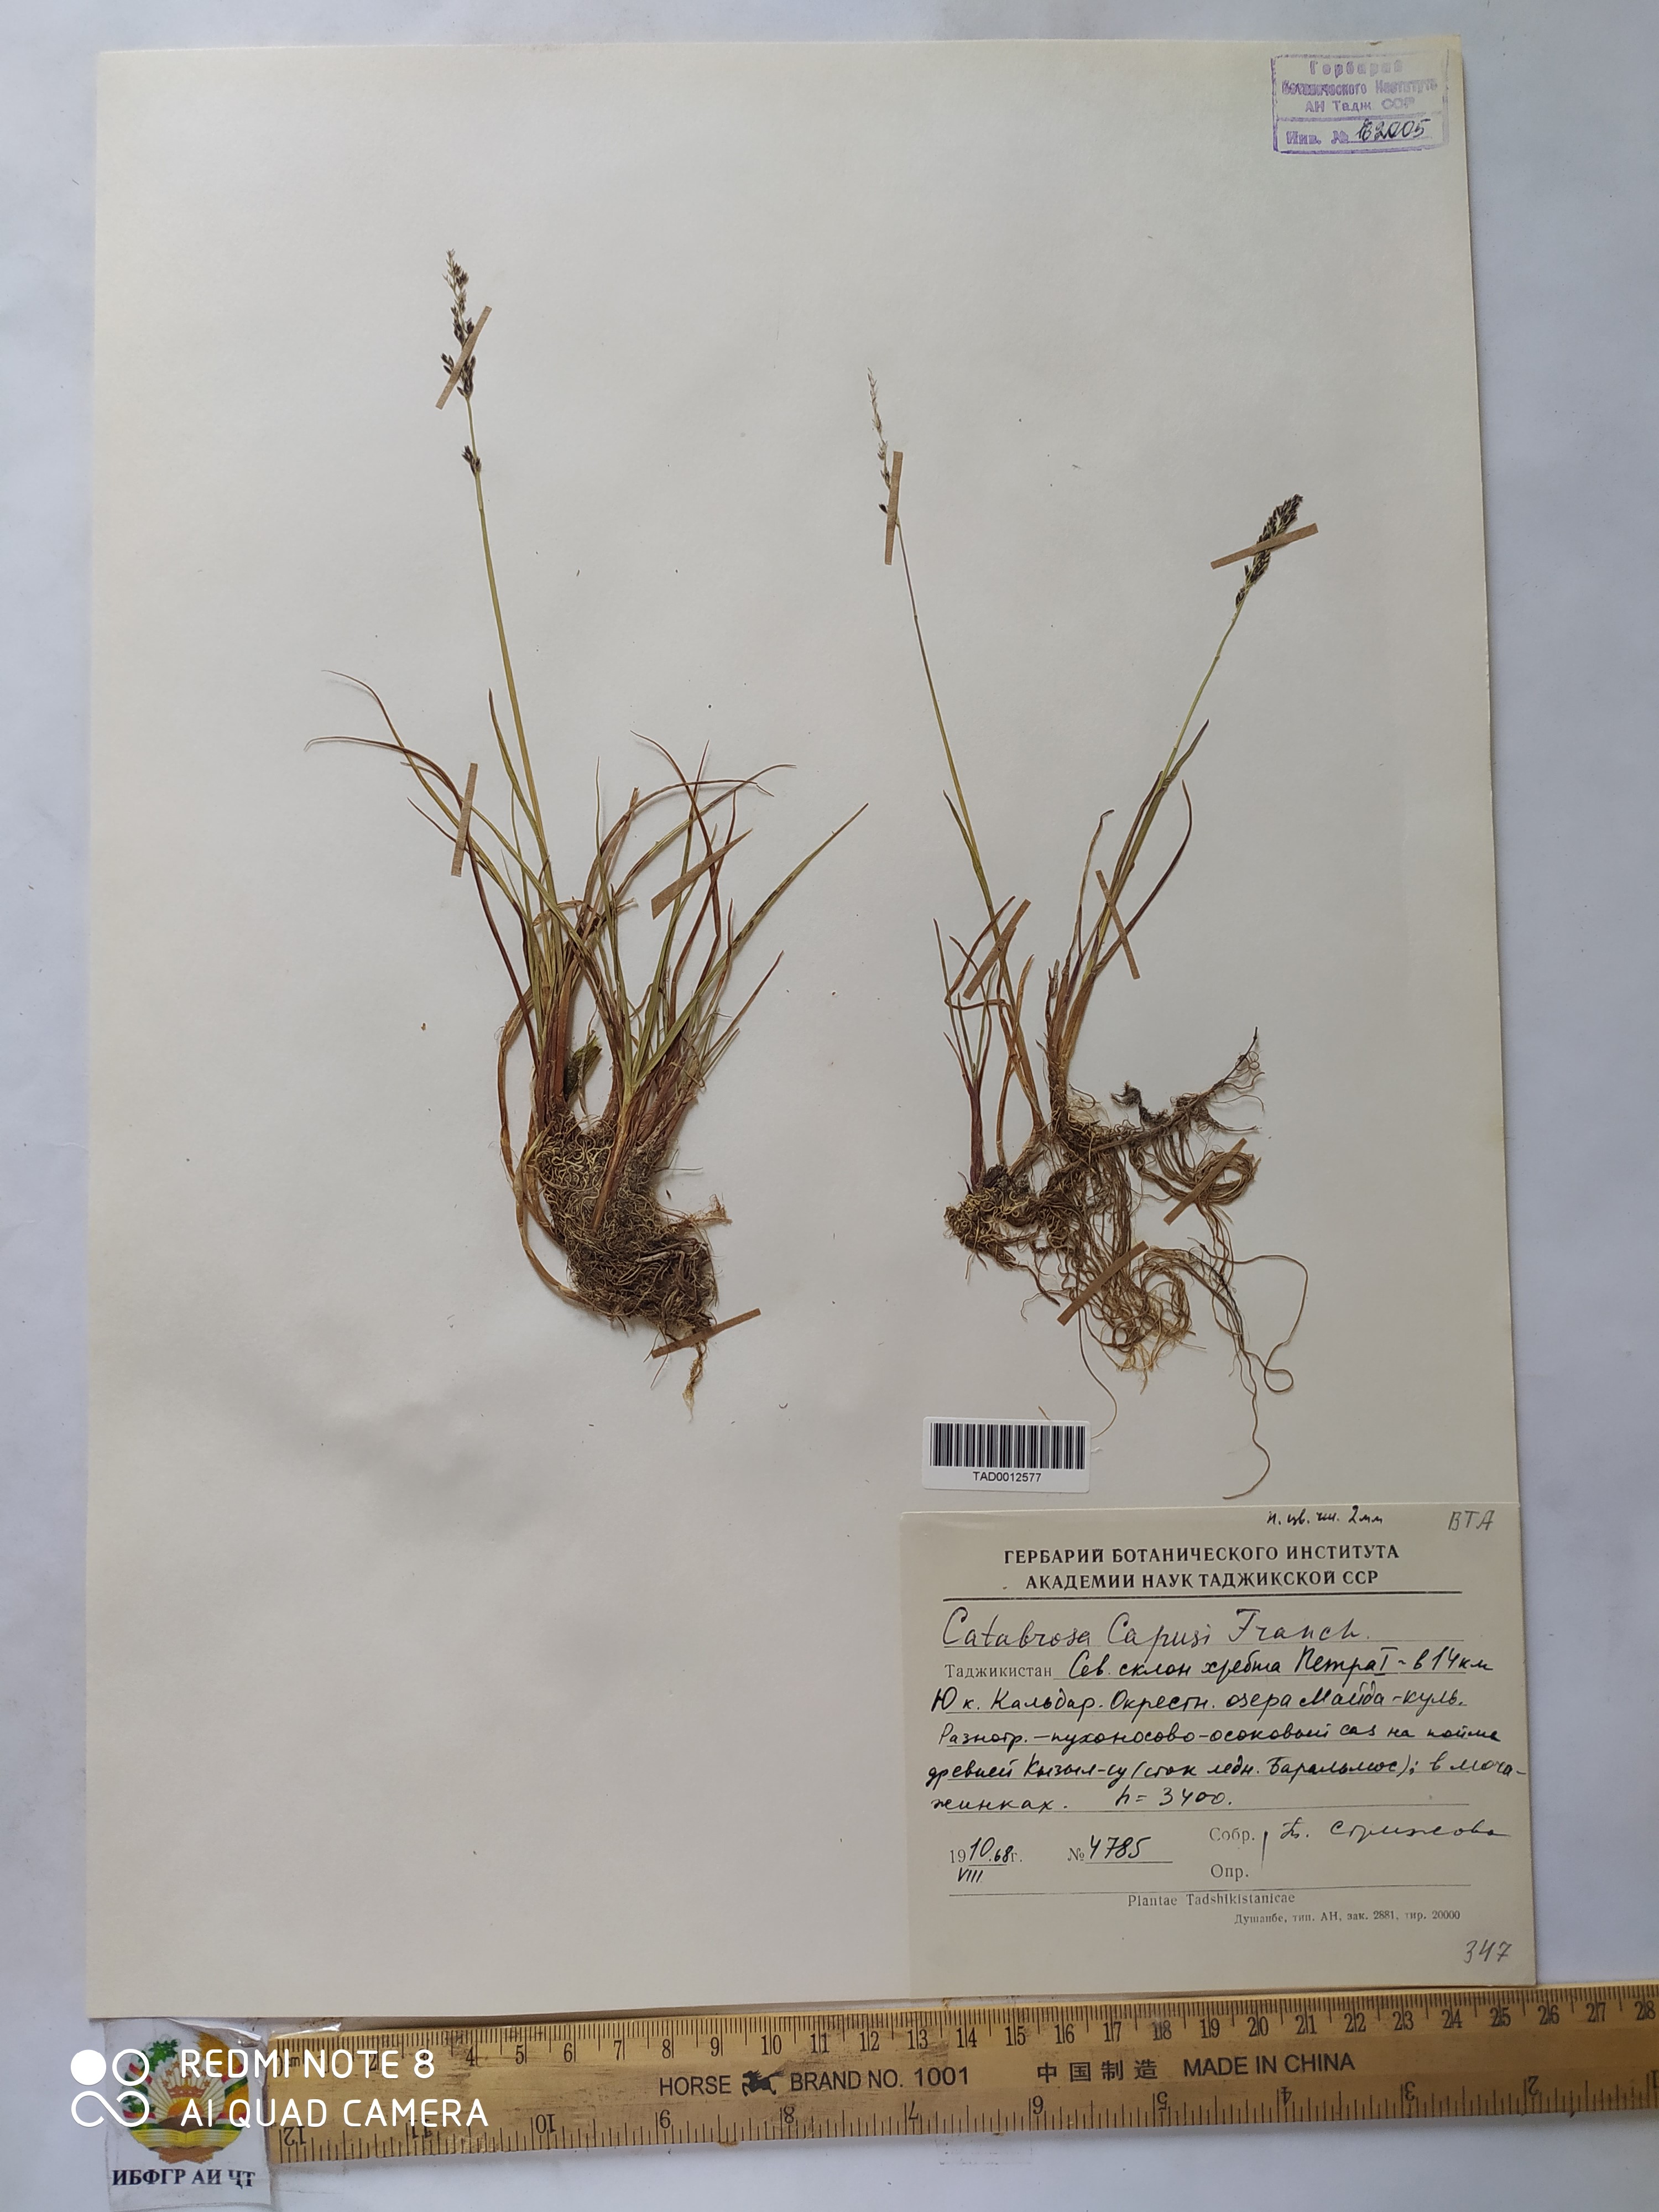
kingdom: Plantae
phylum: Tracheophyta
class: Liliopsida
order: Poales
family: Poaceae
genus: Catabrosa
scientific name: Catabrosa aquatica
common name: Whorl-grass
